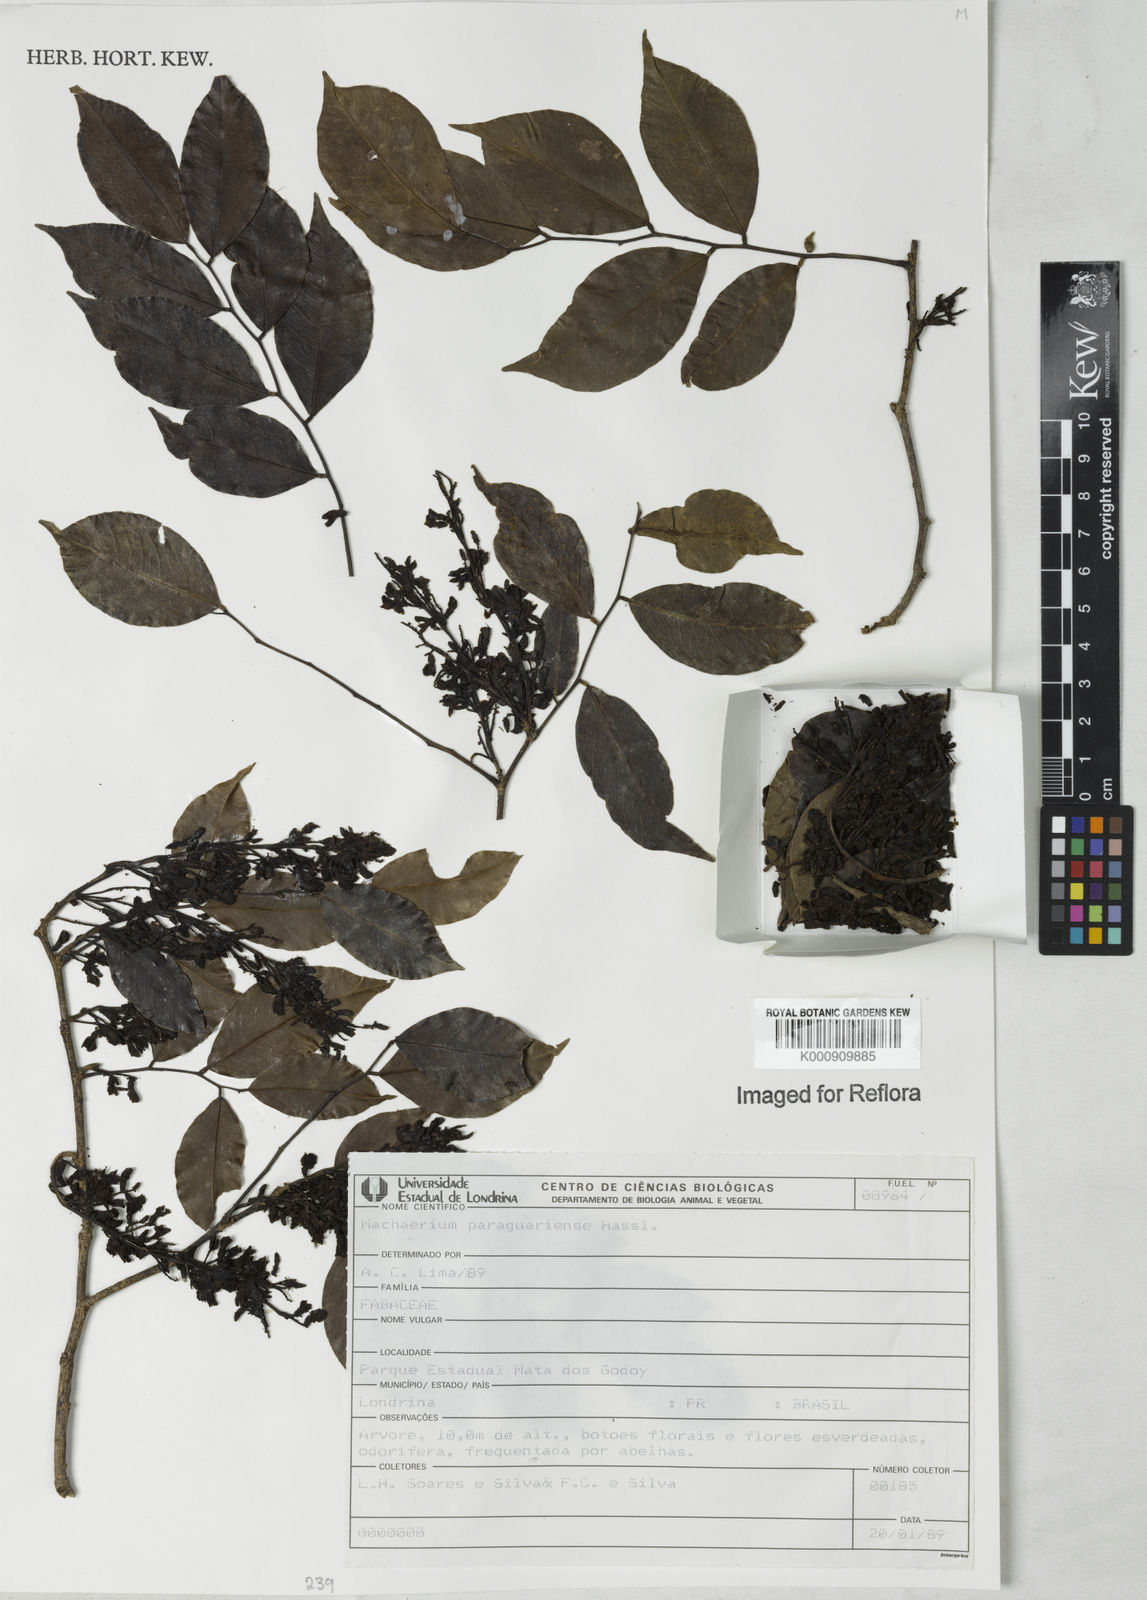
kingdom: Plantae
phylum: Tracheophyta
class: Magnoliopsida
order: Fabales
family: Fabaceae
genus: Machaerium
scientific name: Machaerium oblongifolium
